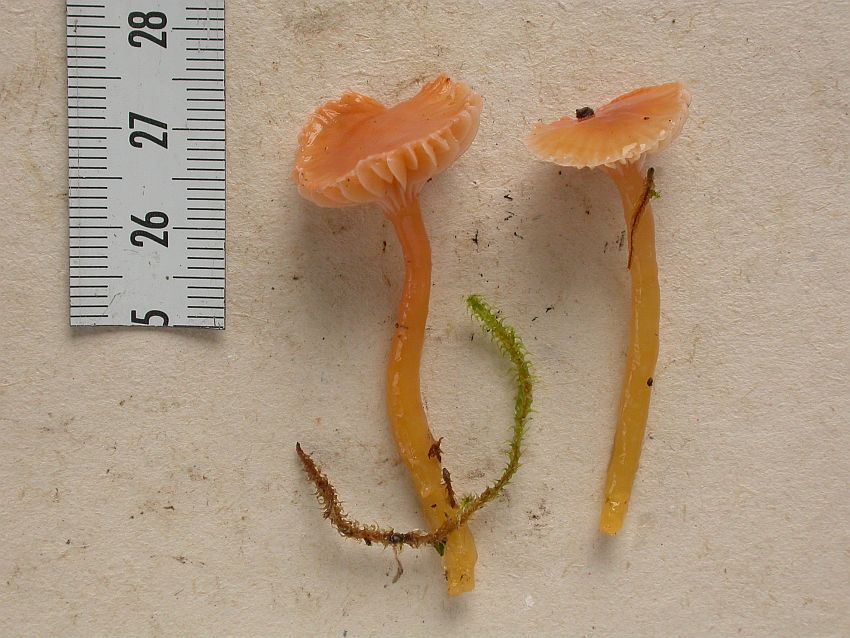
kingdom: Fungi
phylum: Basidiomycota
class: Agaricomycetes
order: Agaricales
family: Hygrophoraceae
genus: Gliophorus
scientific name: Gliophorus laetus
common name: brusk-vokshat
